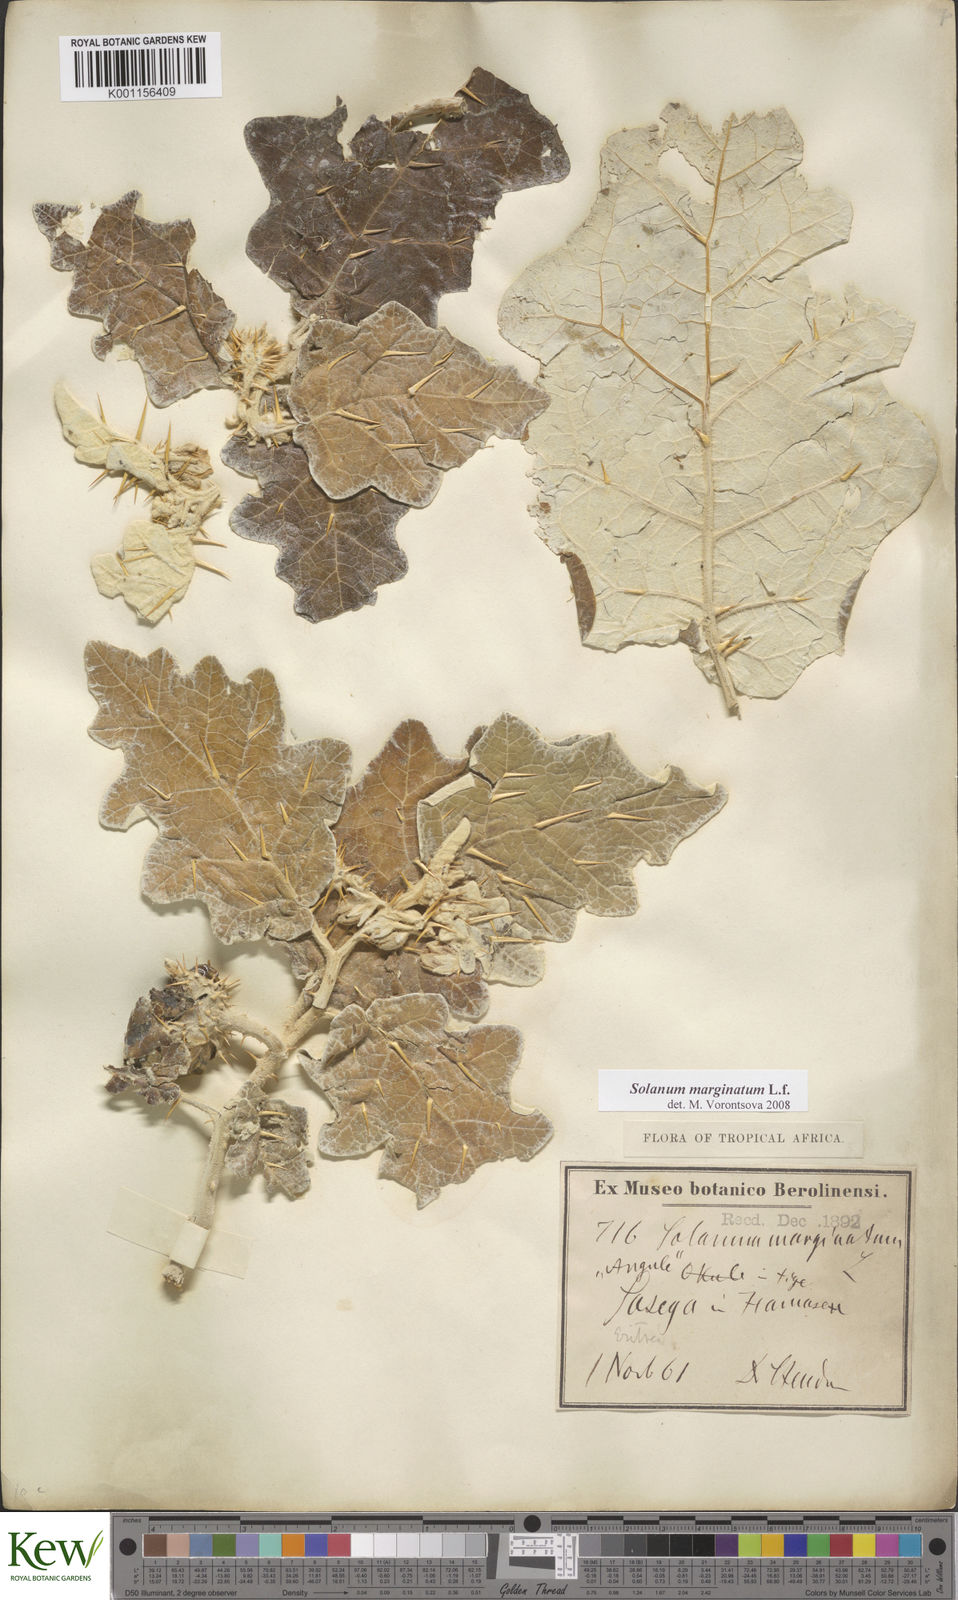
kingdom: Plantae
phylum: Tracheophyta
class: Magnoliopsida
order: Solanales
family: Solanaceae
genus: Solanum
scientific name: Solanum marginatum
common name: Purple african nightshade
